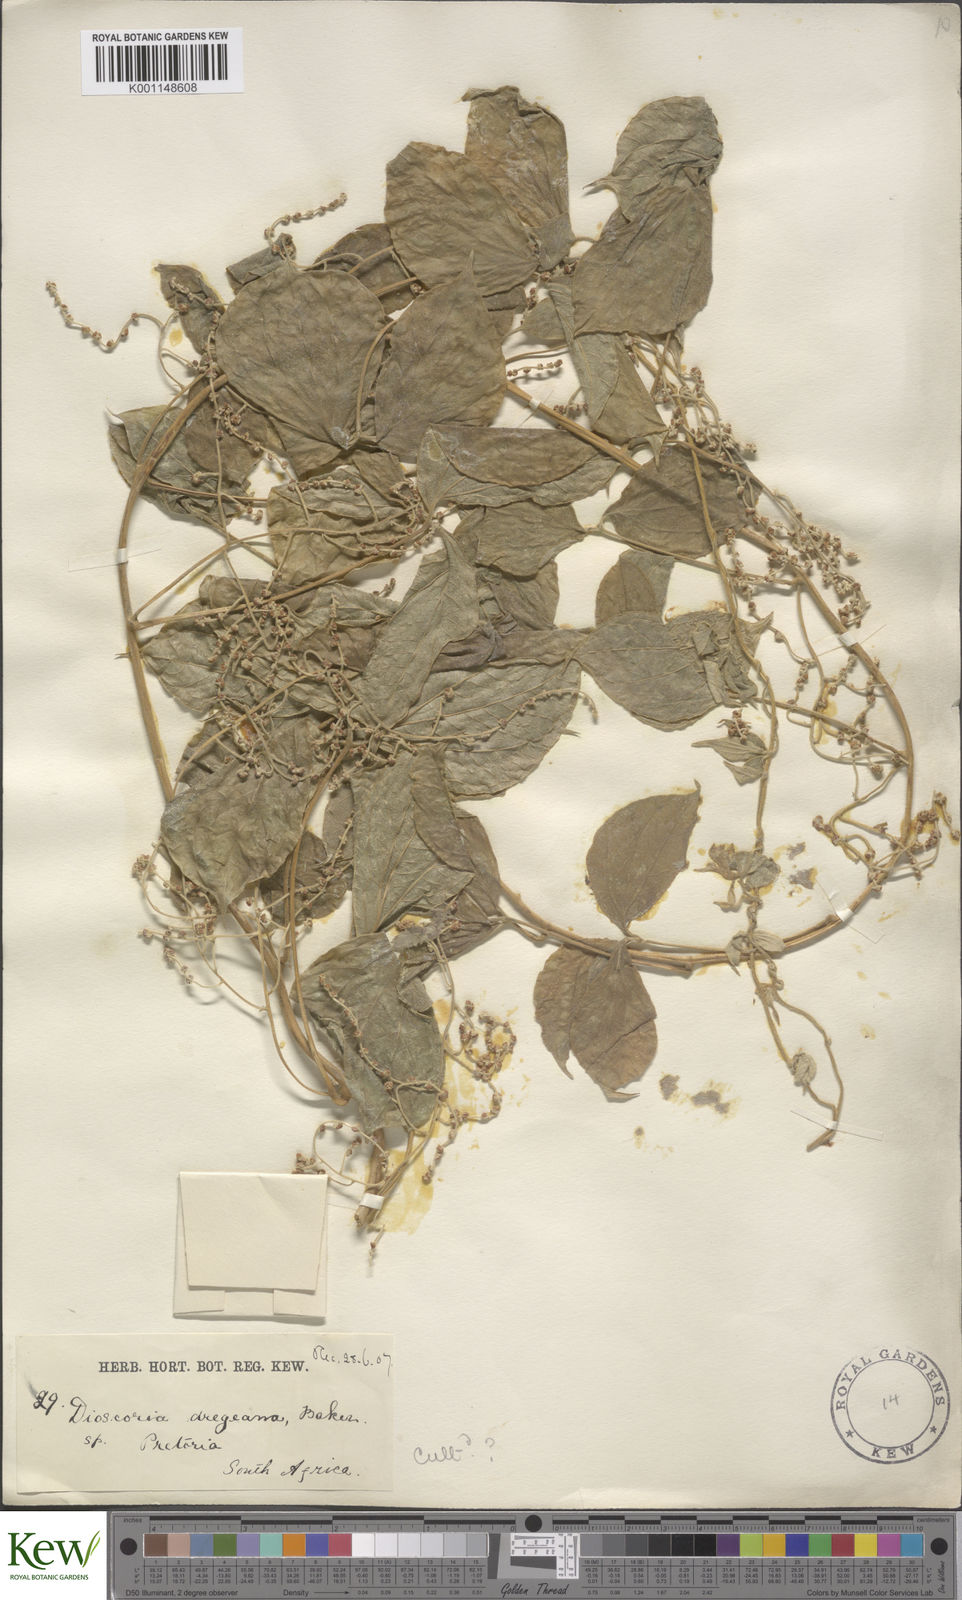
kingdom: Plantae
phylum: Tracheophyta
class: Liliopsida
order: Dioscoreales
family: Dioscoreaceae
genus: Dioscorea
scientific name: Dioscorea dregeana
